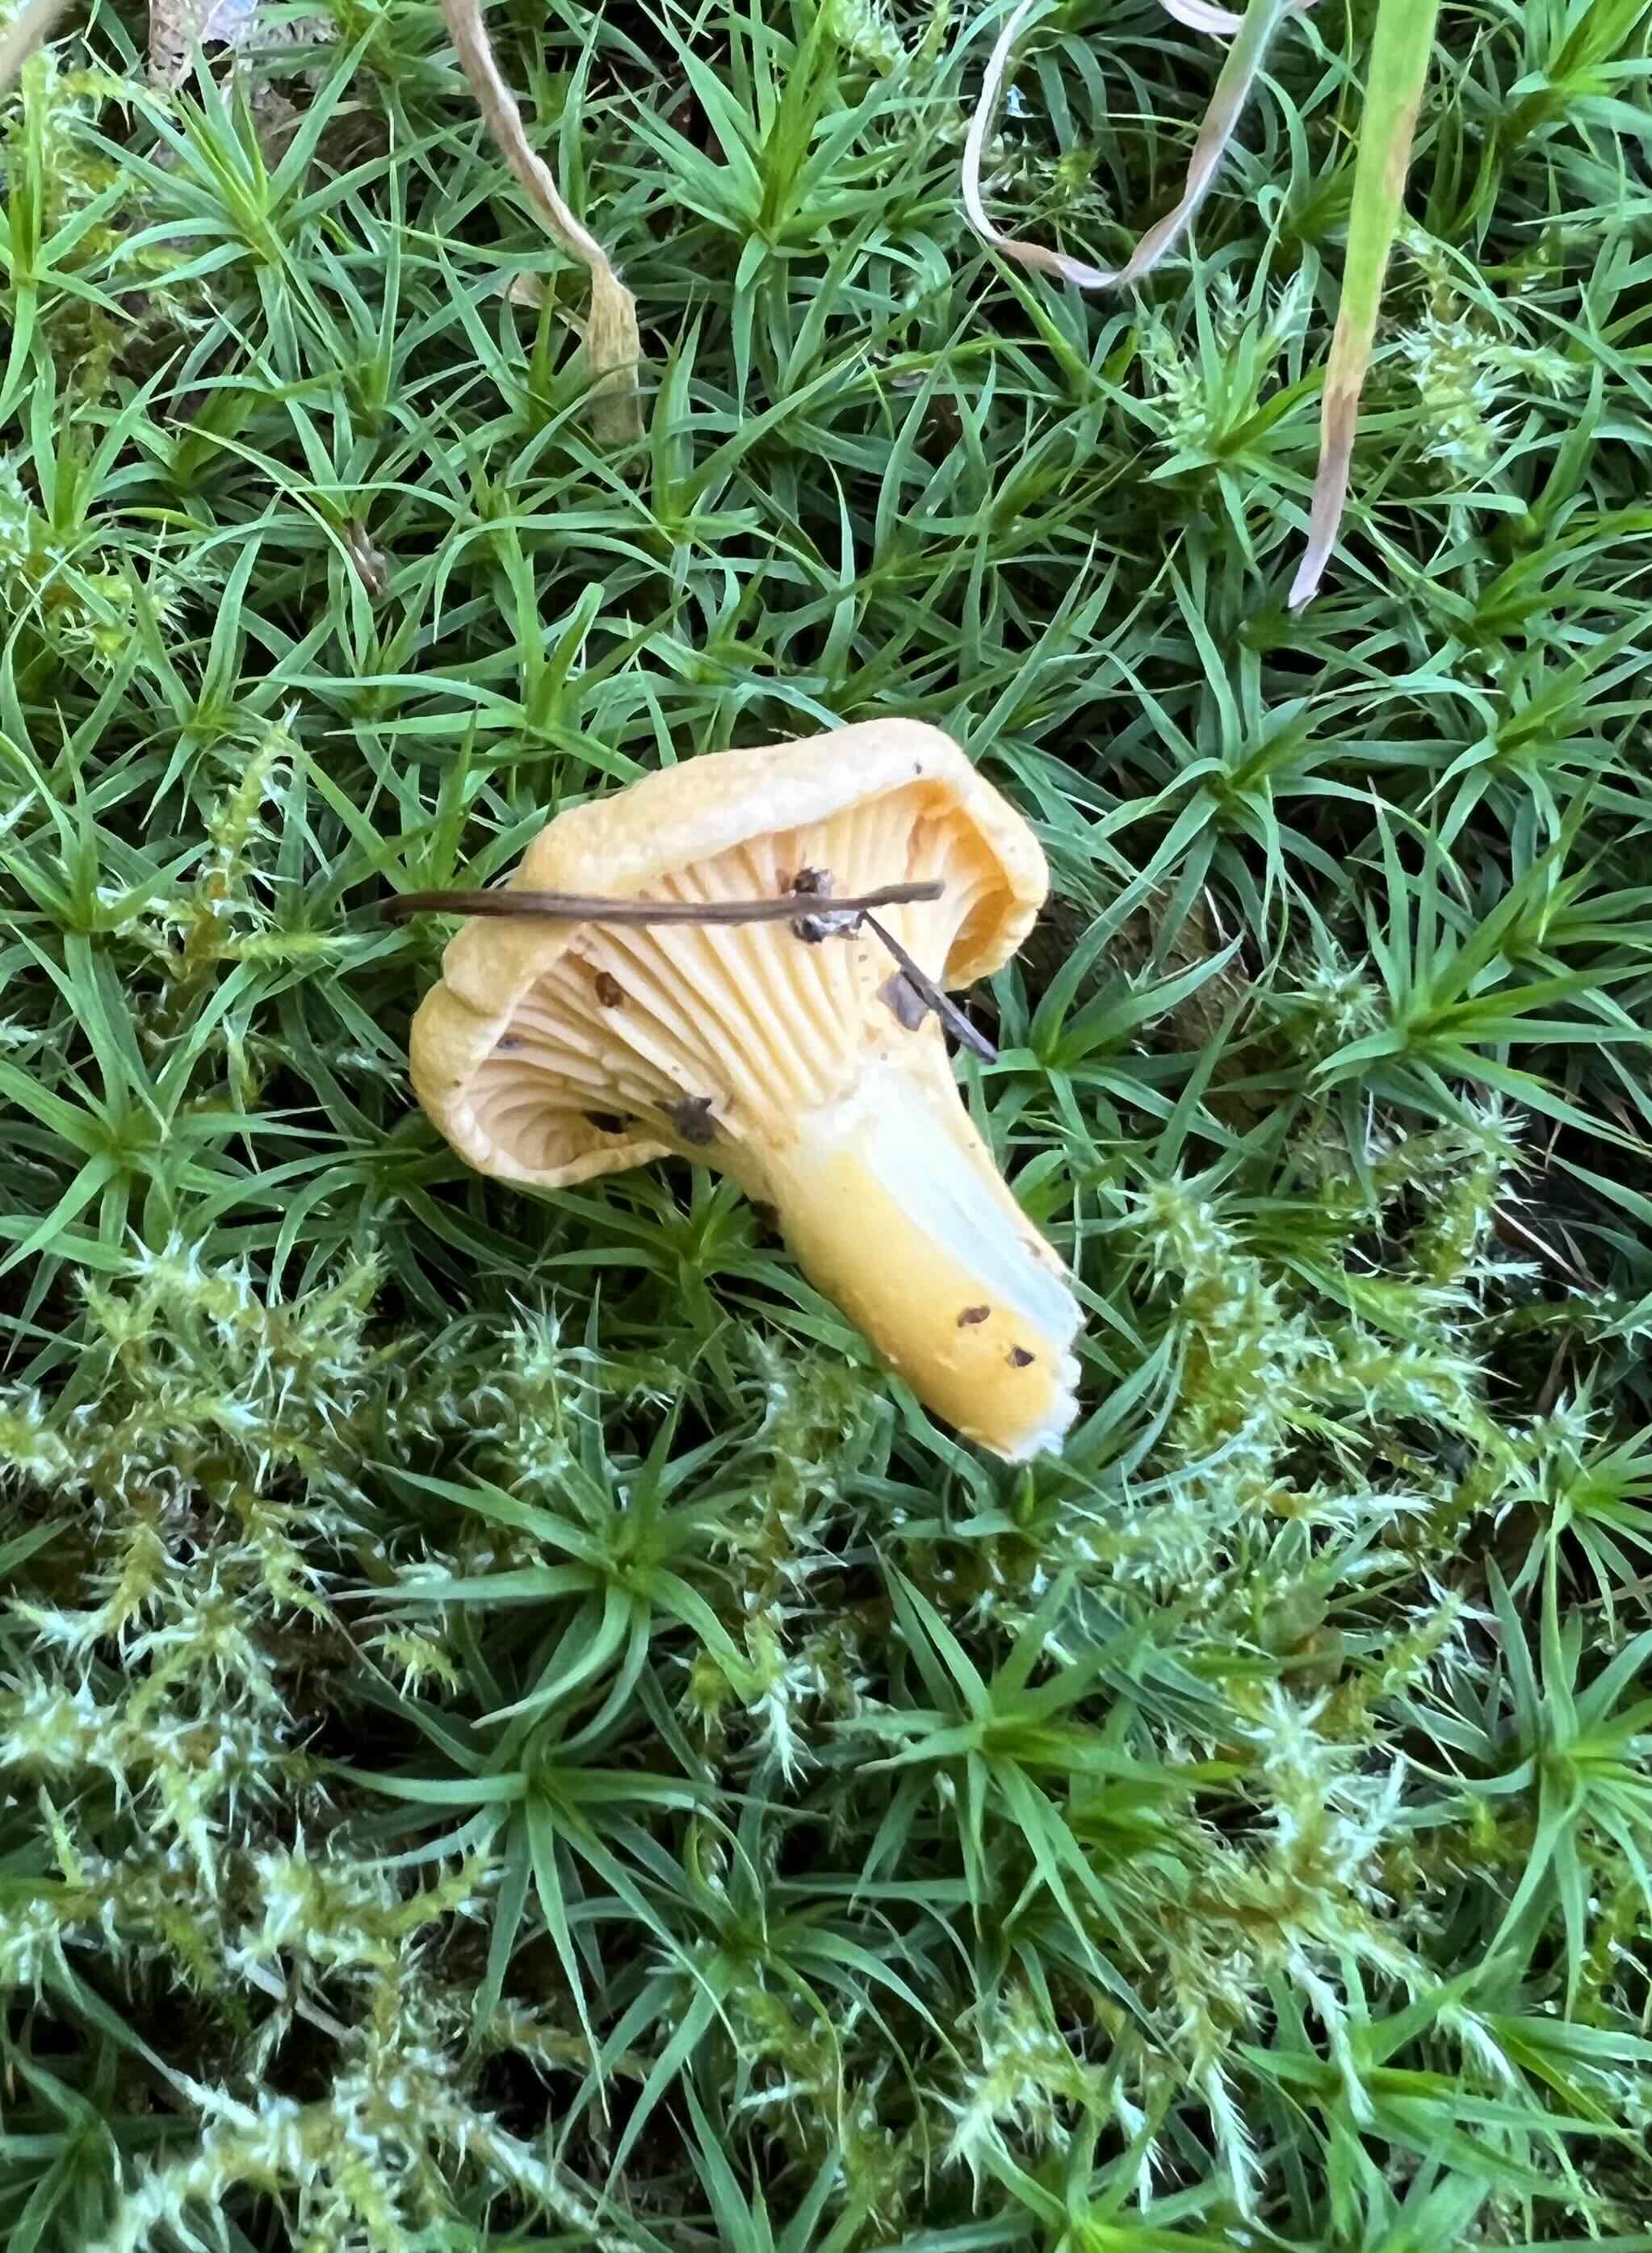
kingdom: Fungi
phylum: Basidiomycota
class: Agaricomycetes
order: Cantharellales
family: Hydnaceae
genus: Cantharellus
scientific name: Cantharellus cibarius
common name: almindelig kantarel
